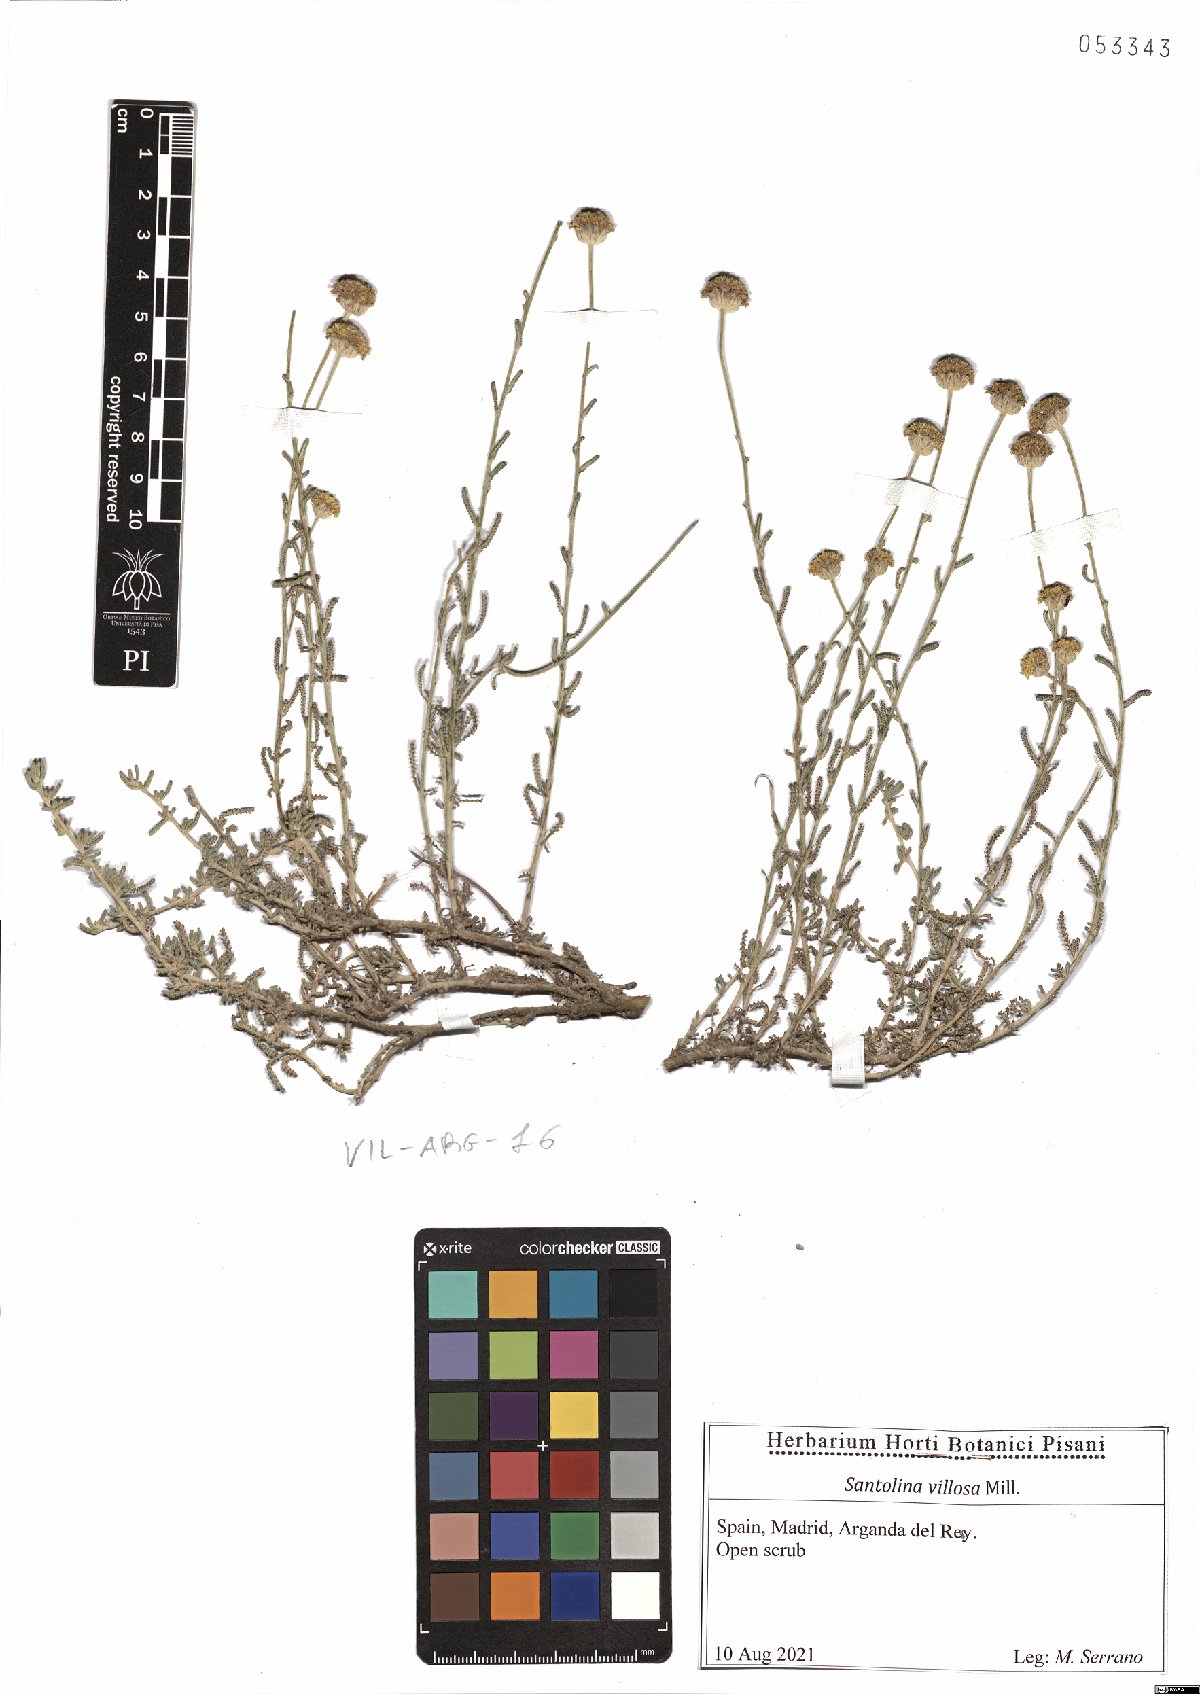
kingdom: Plantae
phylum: Tracheophyta
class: Magnoliopsida
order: Asterales
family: Asteraceae
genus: Santolina
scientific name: Santolina chamaecyparissus
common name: Lavender-cotton
